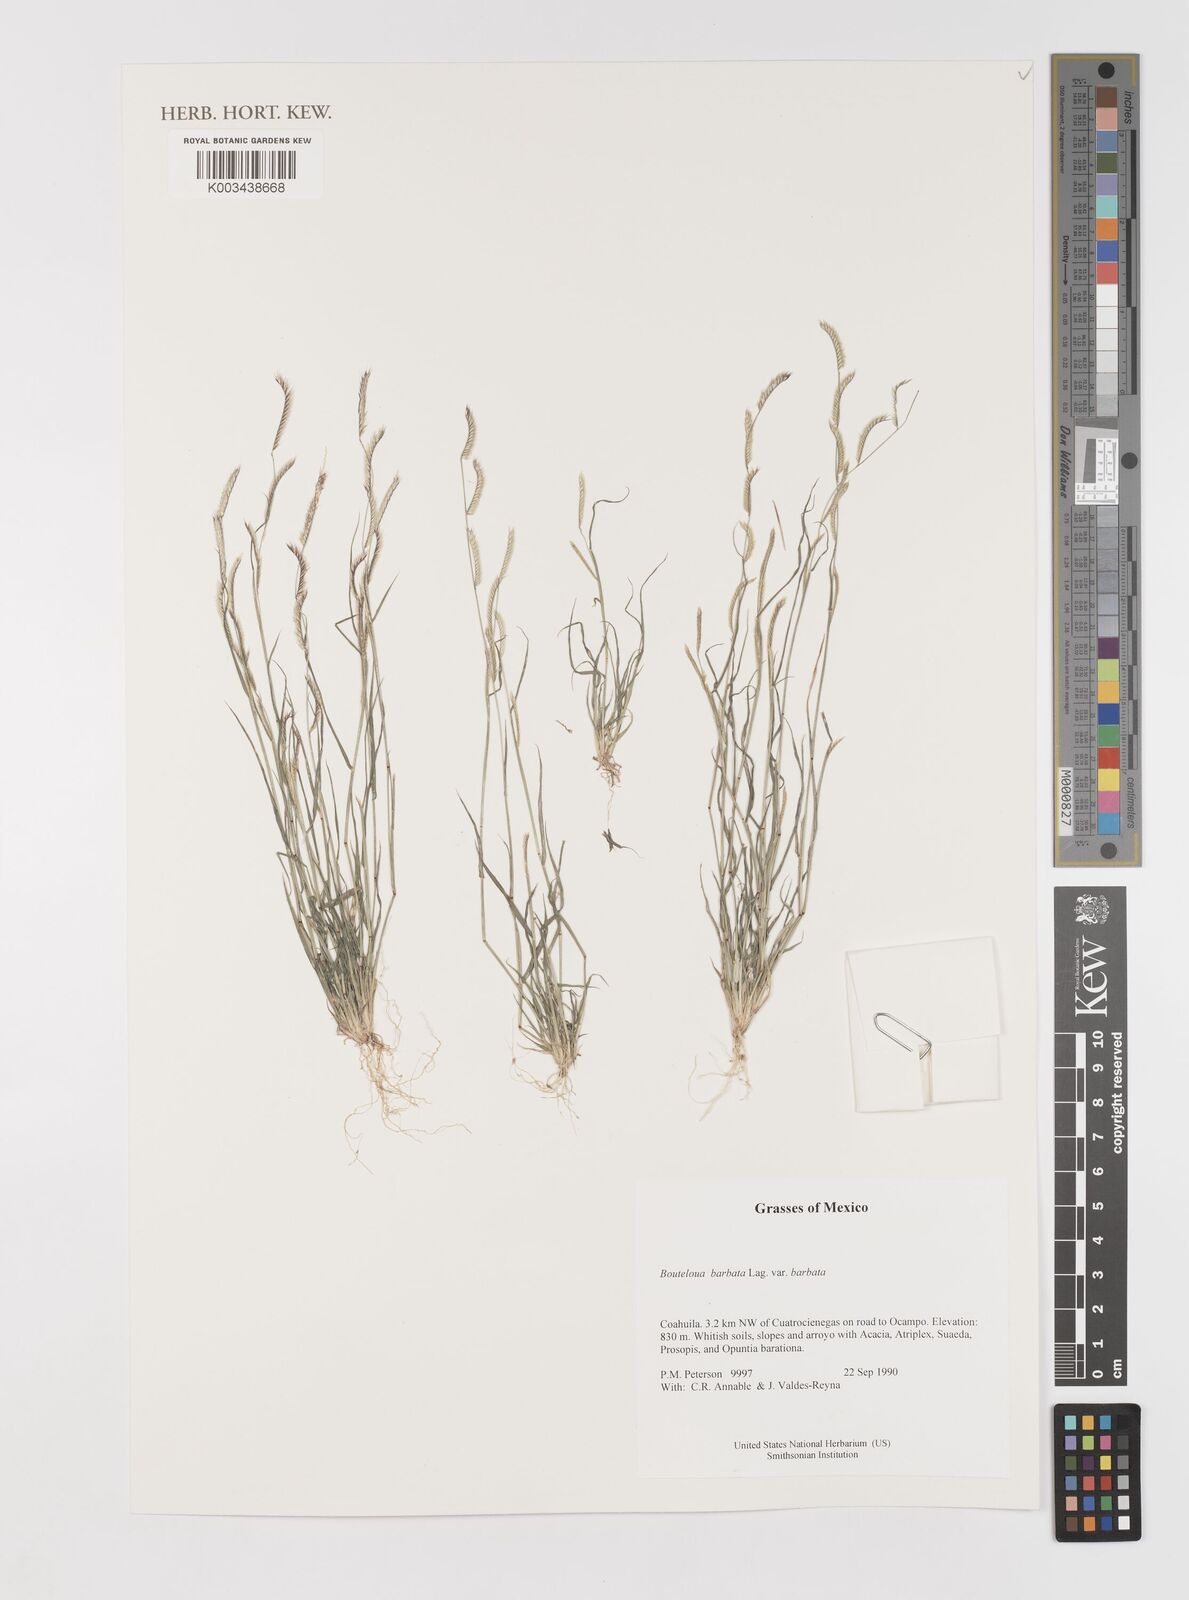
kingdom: Plantae
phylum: Tracheophyta
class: Liliopsida
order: Poales
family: Poaceae
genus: Bouteloua
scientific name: Bouteloua
